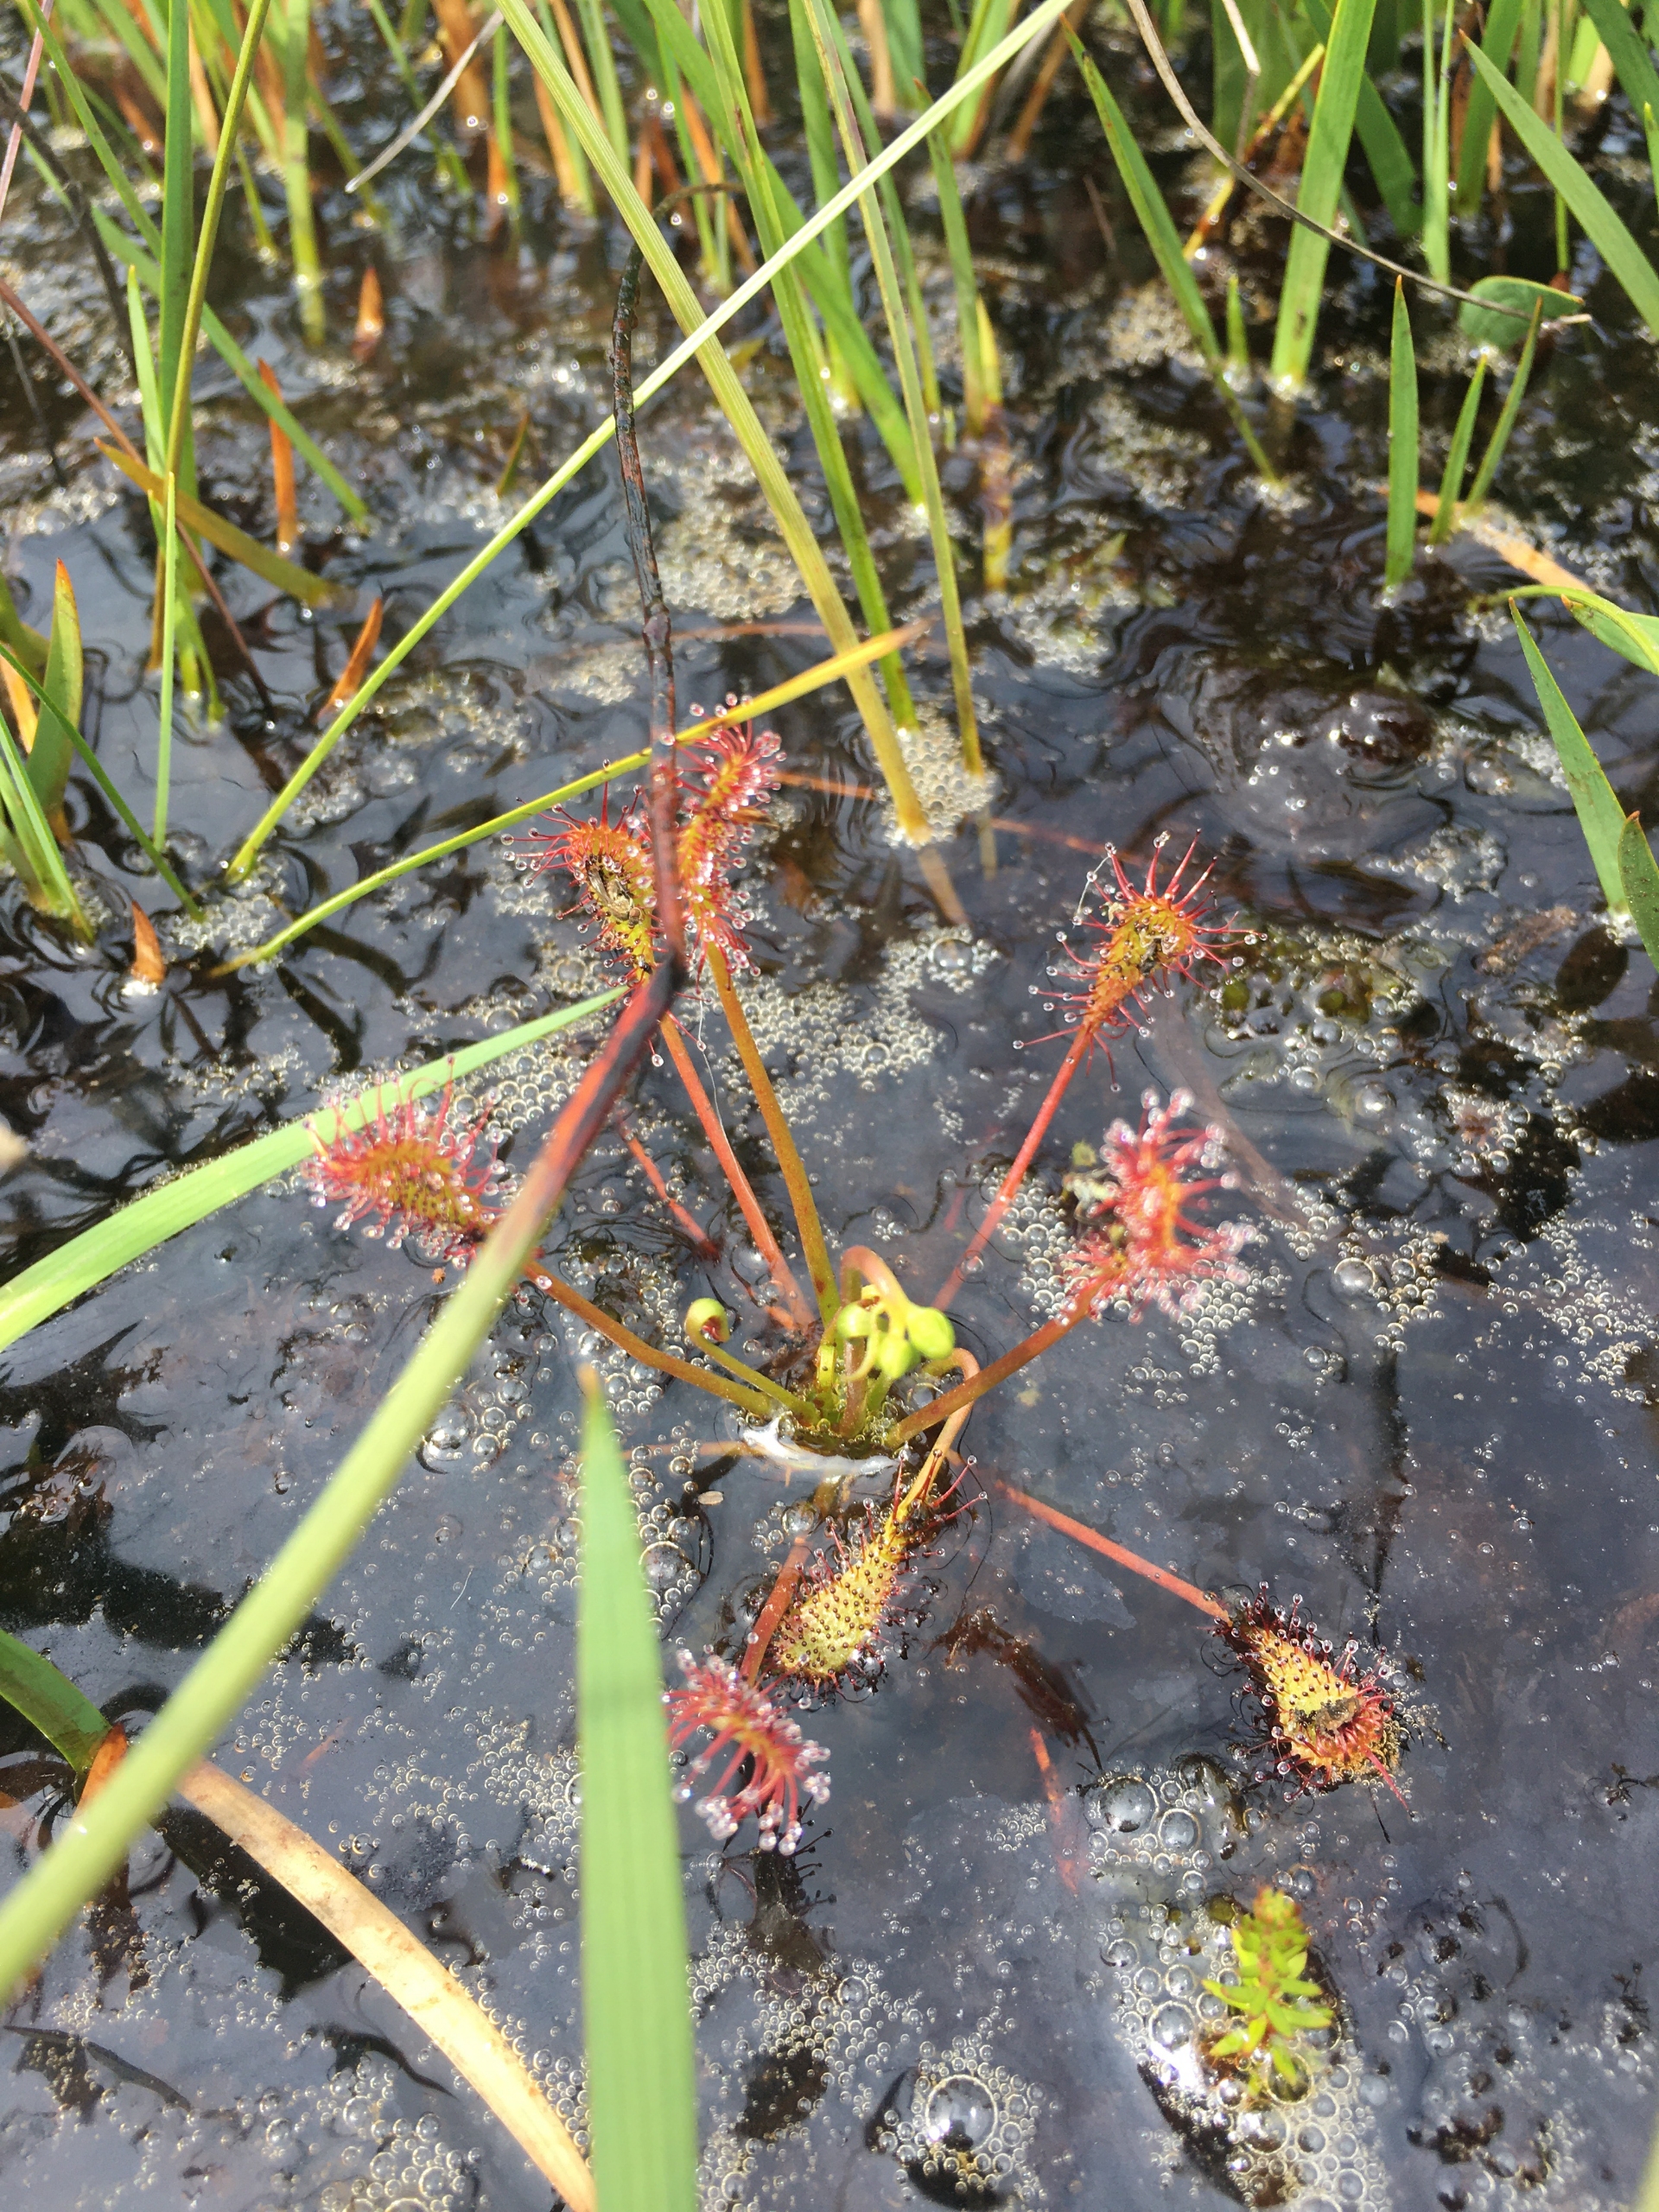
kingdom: Plantae
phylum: Tracheophyta
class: Magnoliopsida
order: Caryophyllales
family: Droseraceae
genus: Drosera
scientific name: Drosera intermedia
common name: Liden soldug
